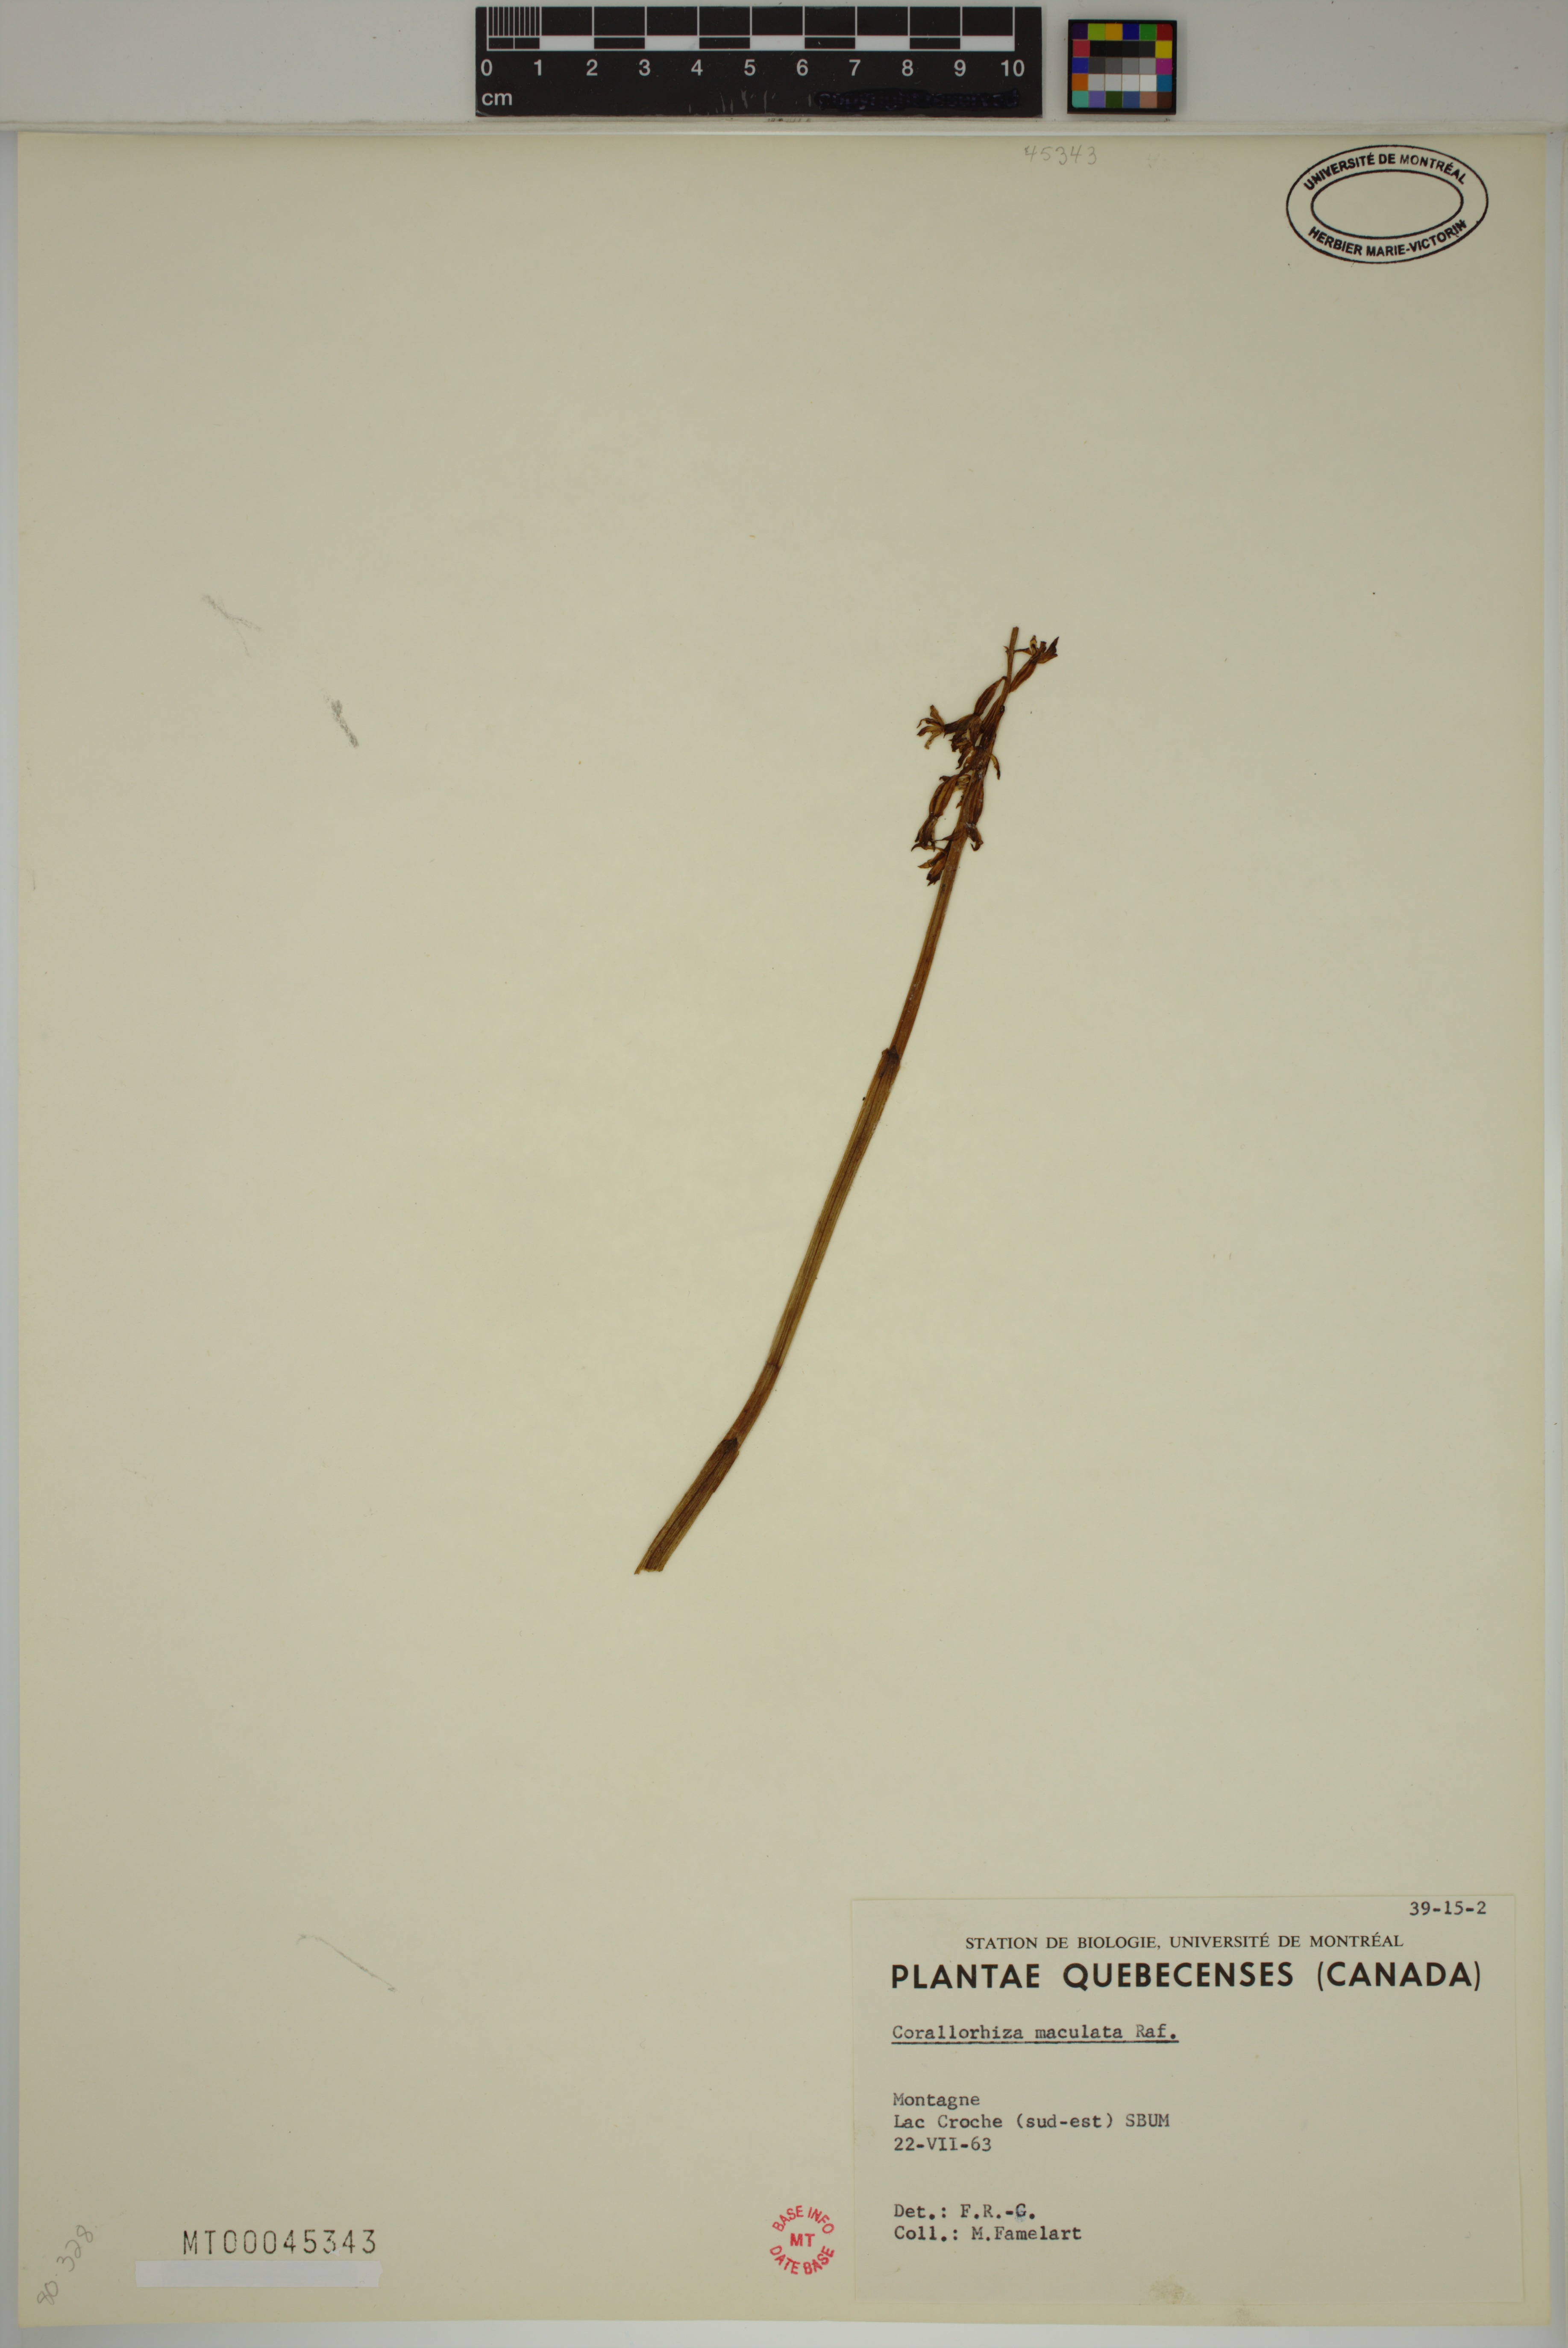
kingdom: Plantae
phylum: Tracheophyta
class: Liliopsida
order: Asparagales
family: Orchidaceae
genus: Corallorhiza
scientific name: Corallorhiza maculata
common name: Spotted coralroot
